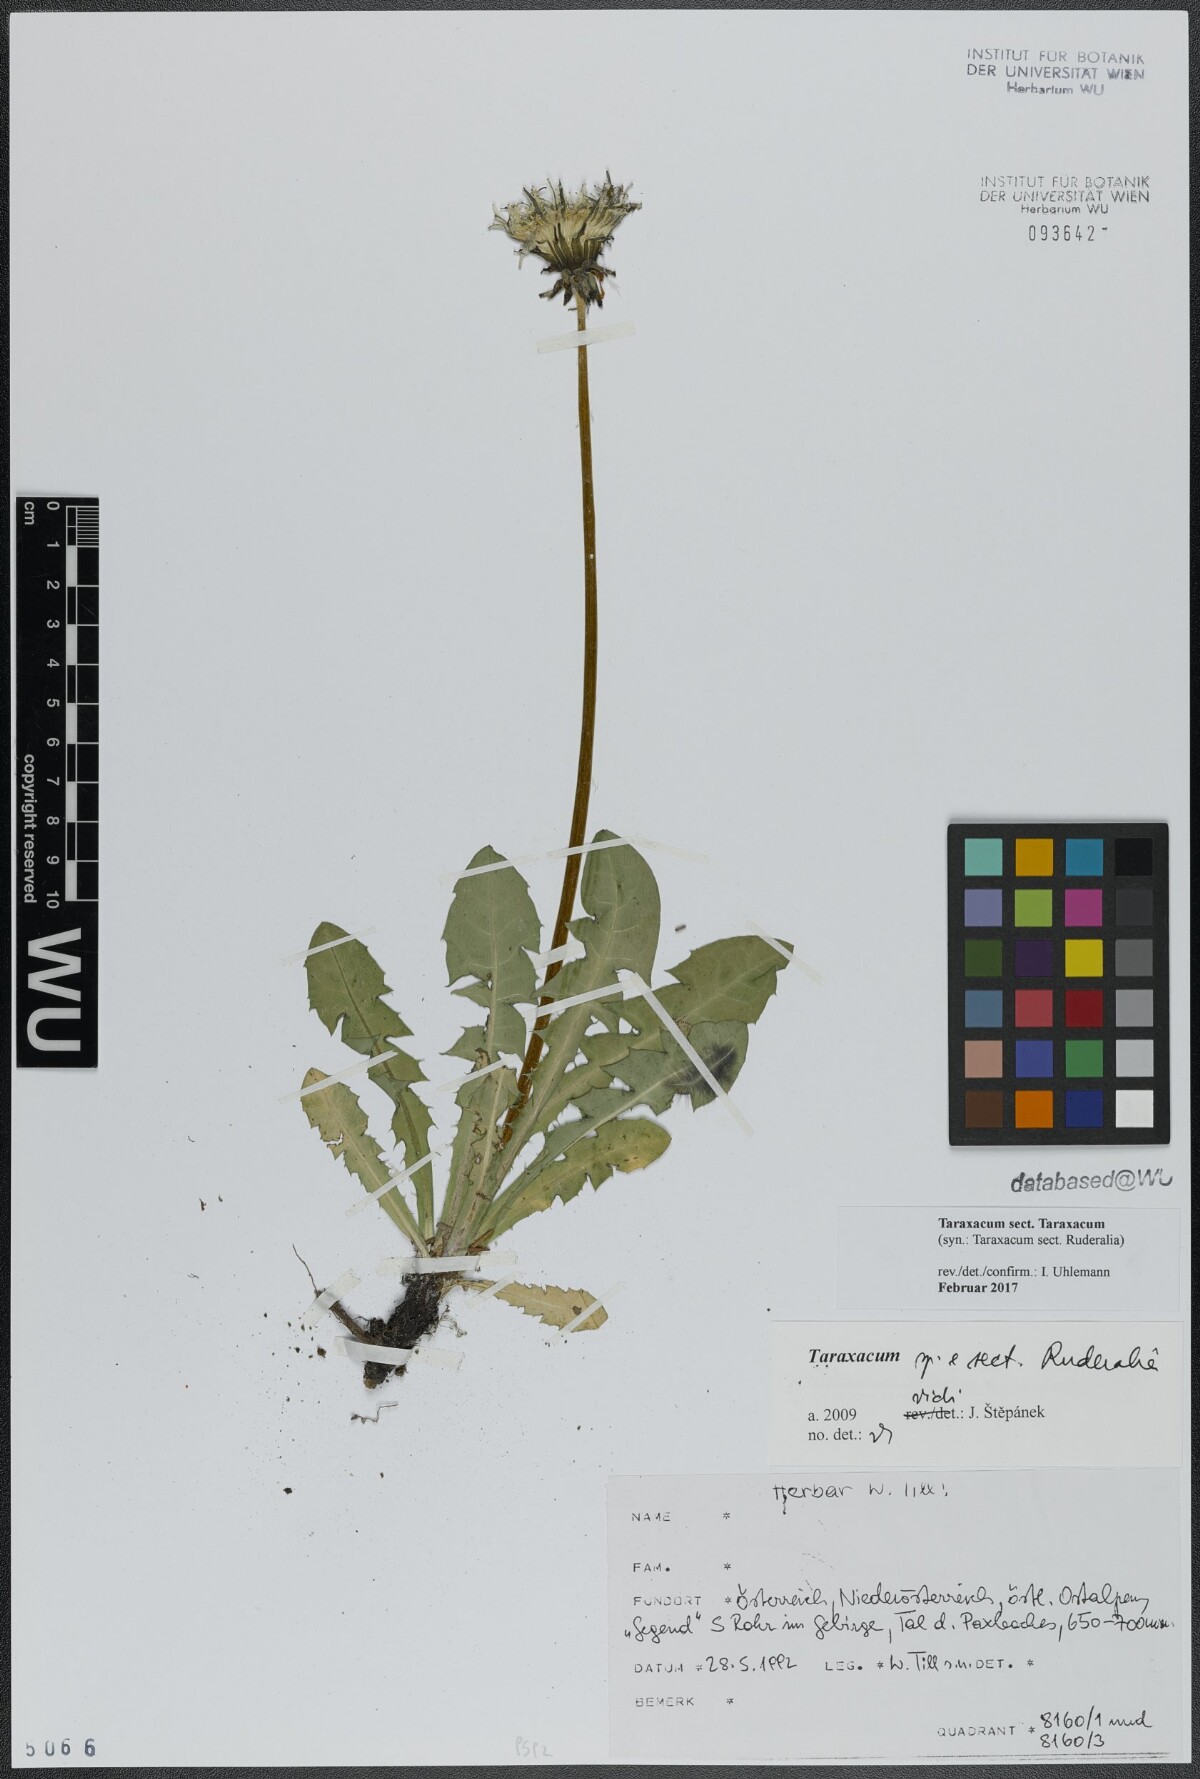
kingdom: Plantae
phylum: Tracheophyta
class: Magnoliopsida
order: Asterales
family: Asteraceae
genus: Taraxacum
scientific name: Taraxacum
